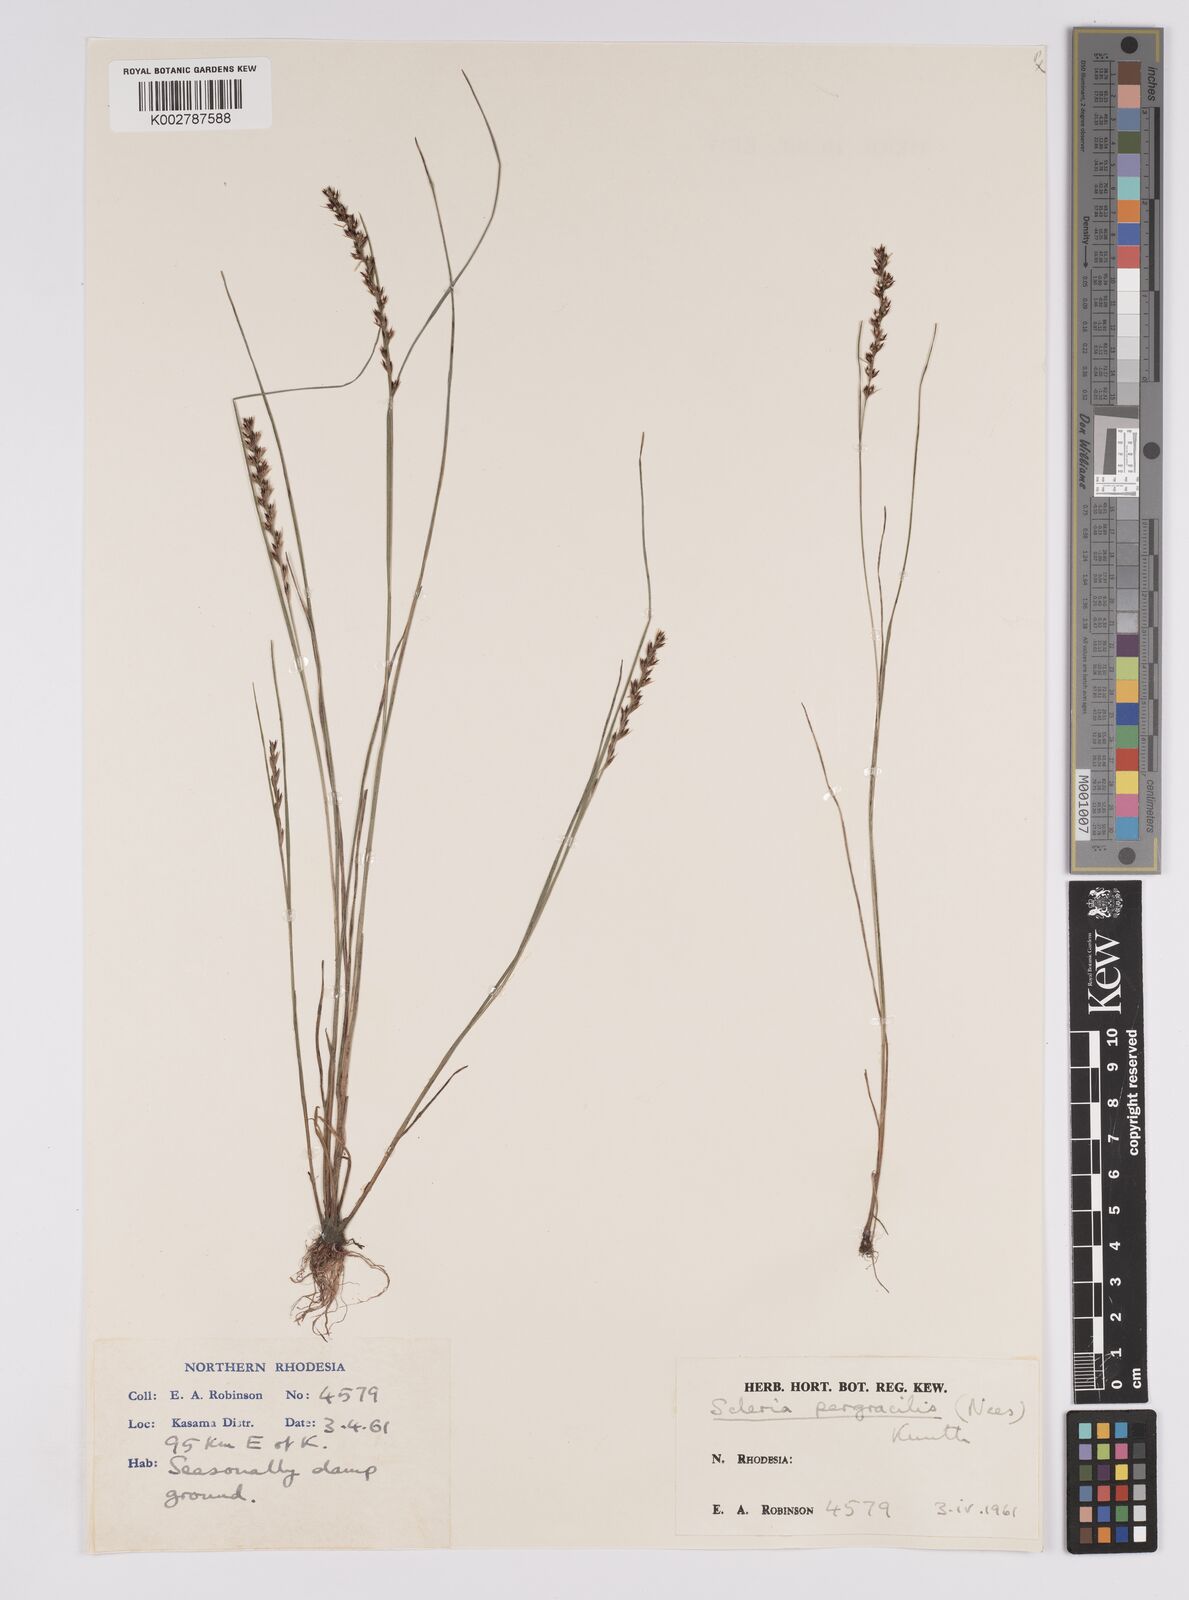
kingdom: Plantae
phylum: Tracheophyta
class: Liliopsida
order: Poales
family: Cyperaceae
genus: Scleria
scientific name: Scleria pergracilis
